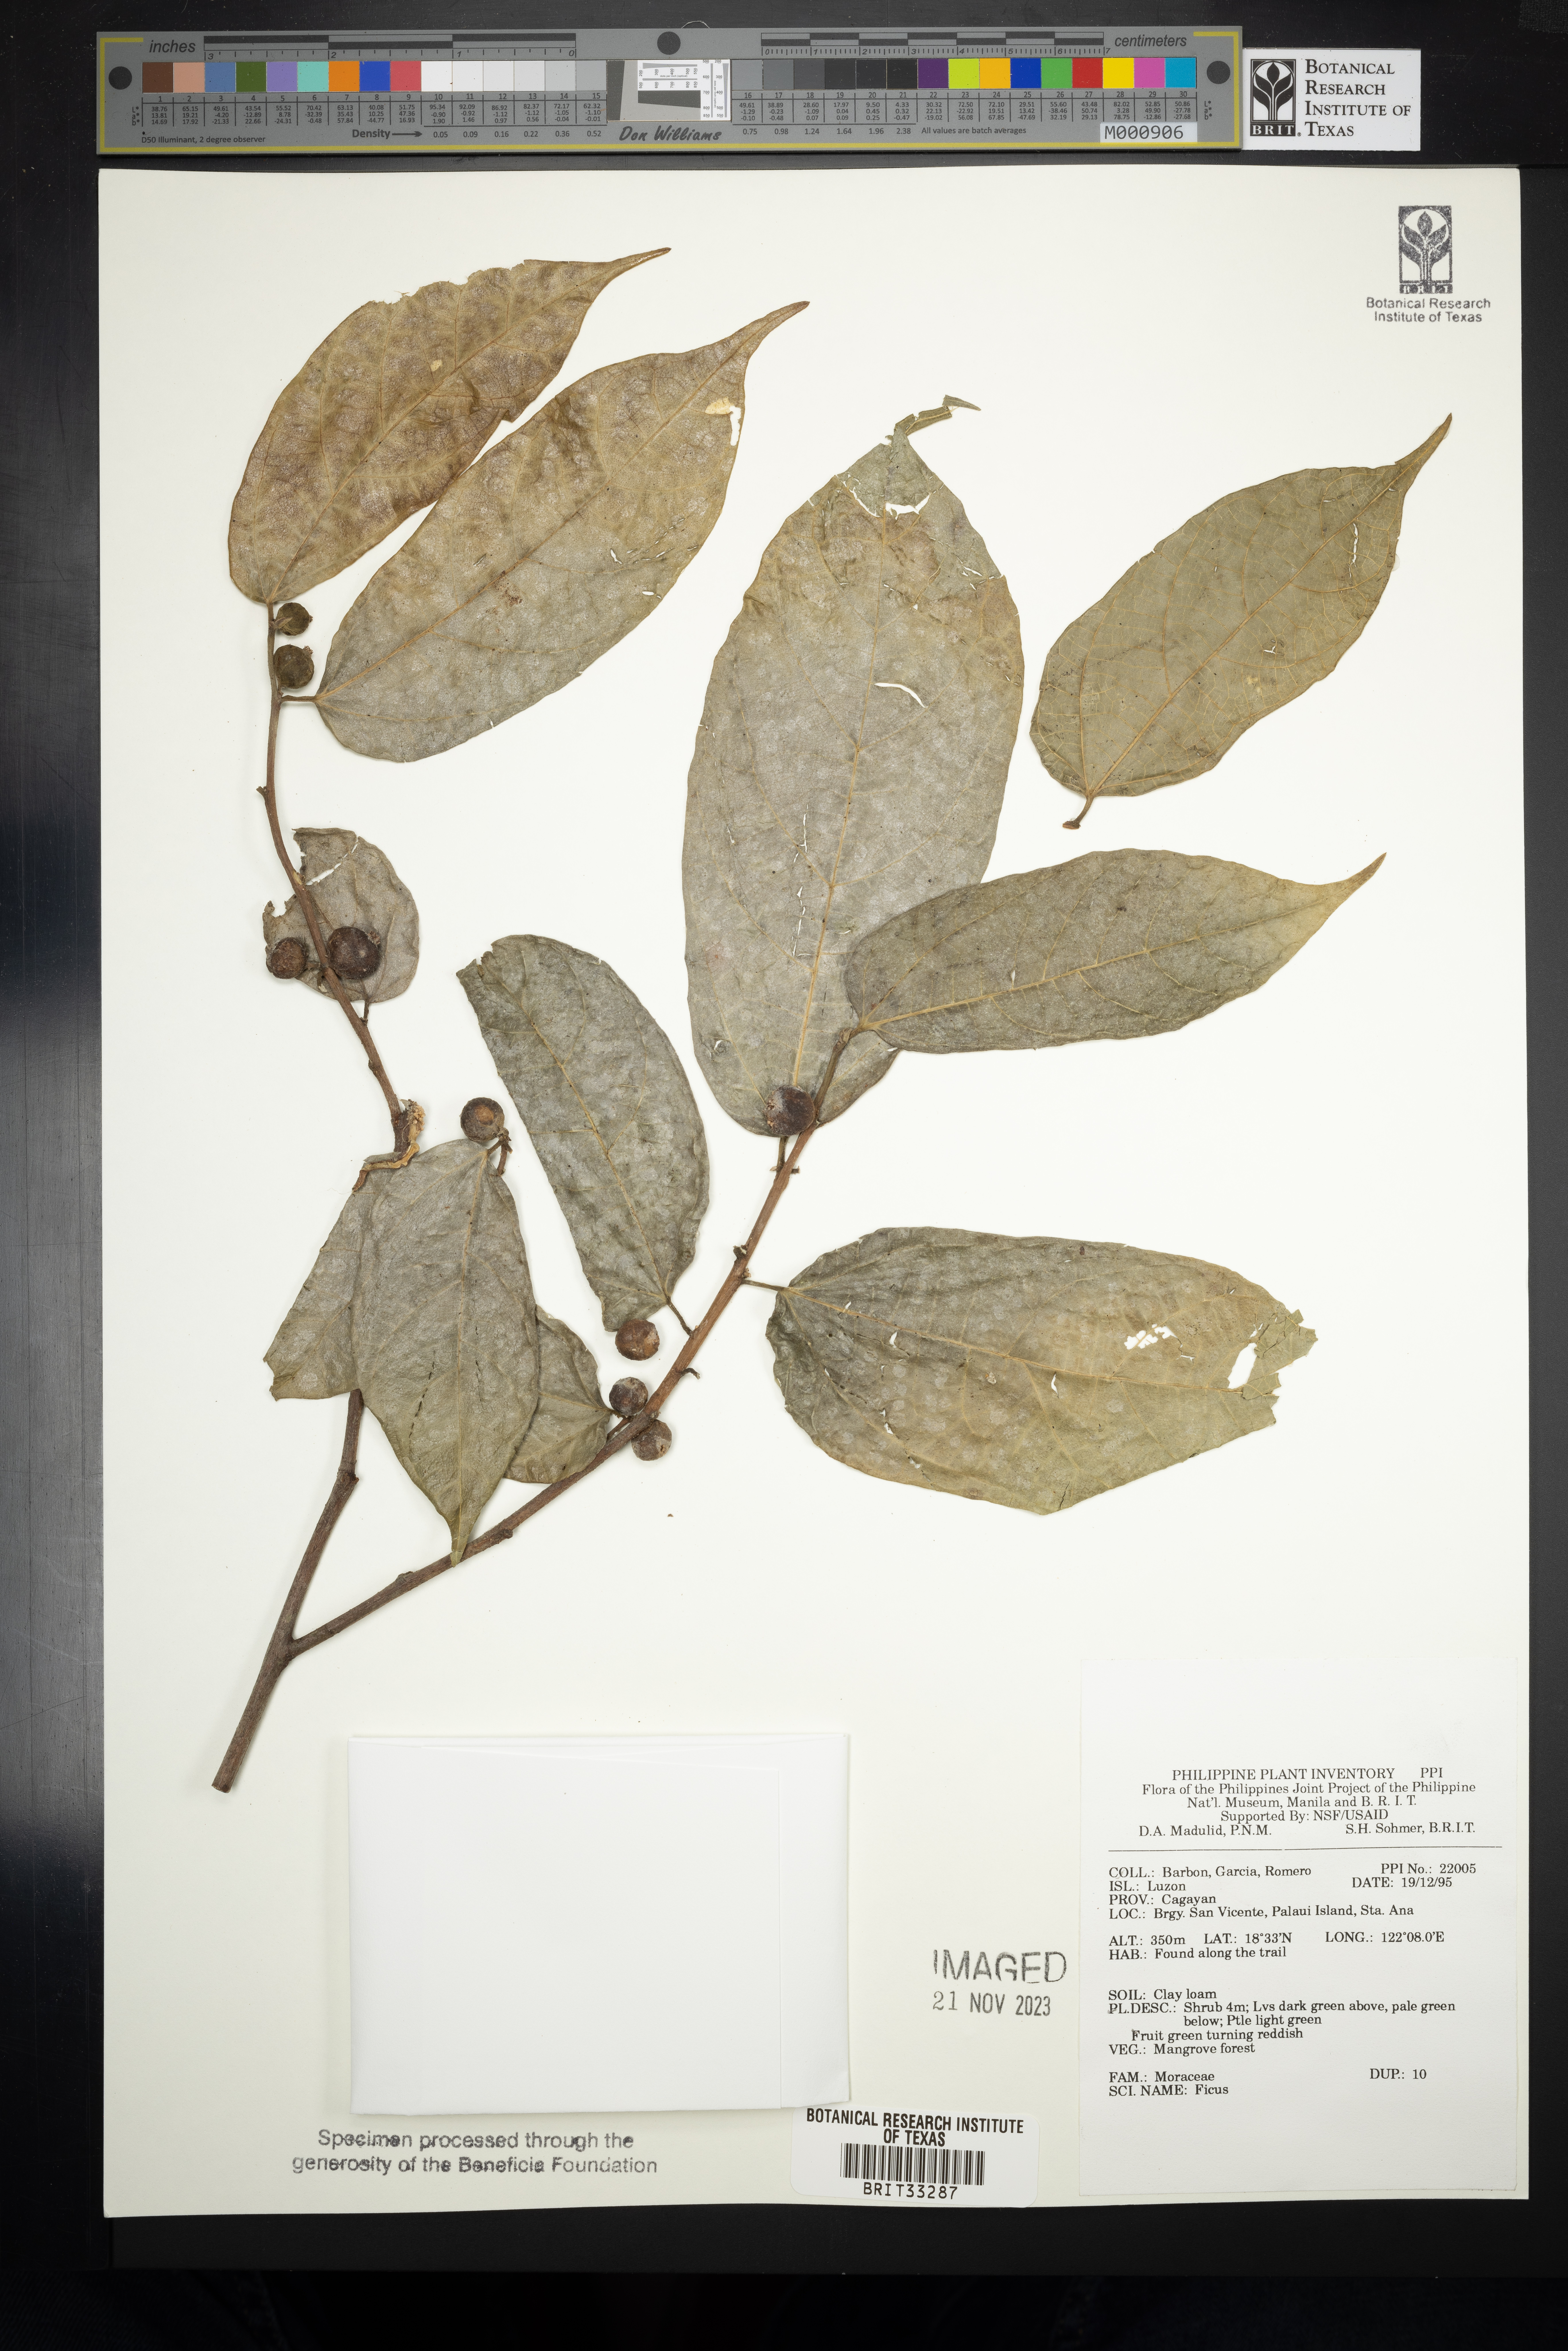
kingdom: Plantae
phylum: Tracheophyta
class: Magnoliopsida
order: Rosales
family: Moraceae
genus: Ficus
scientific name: Ficus
